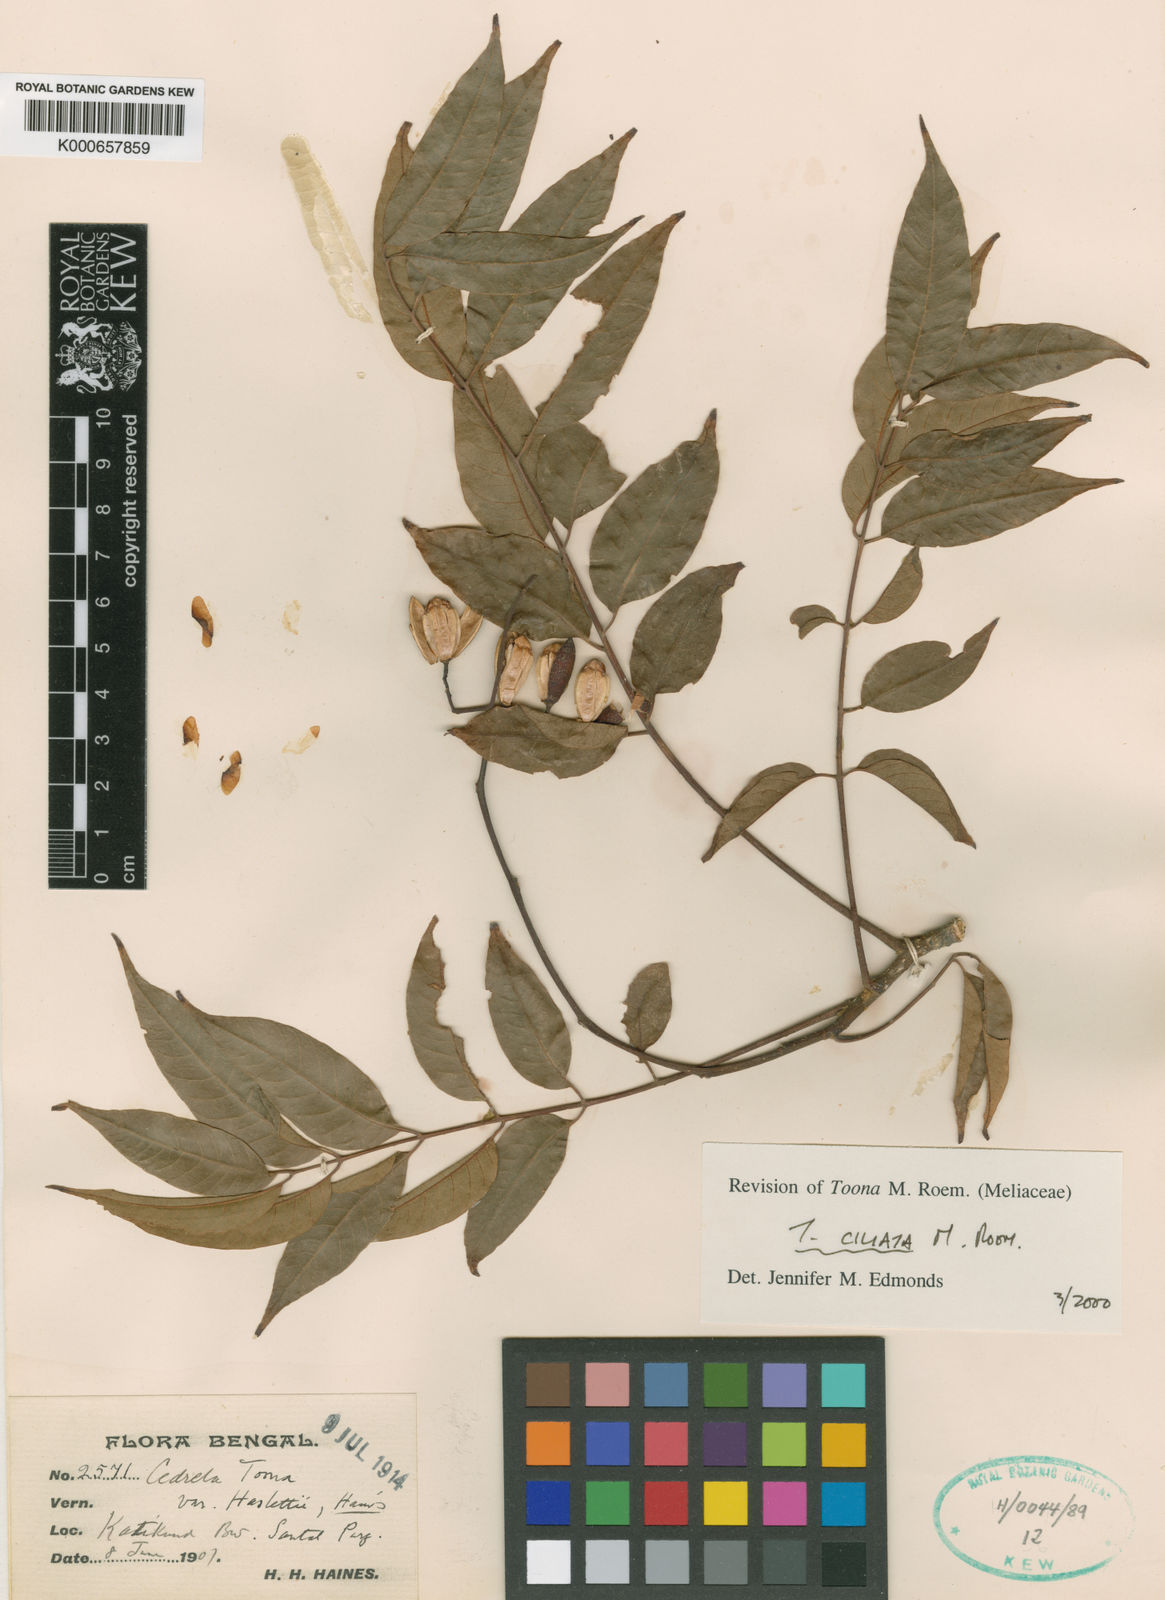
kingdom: Plantae
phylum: Tracheophyta
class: Magnoliopsida
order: Sapindales
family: Meliaceae
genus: Toona
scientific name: Toona ciliata
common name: Australian redcedar
